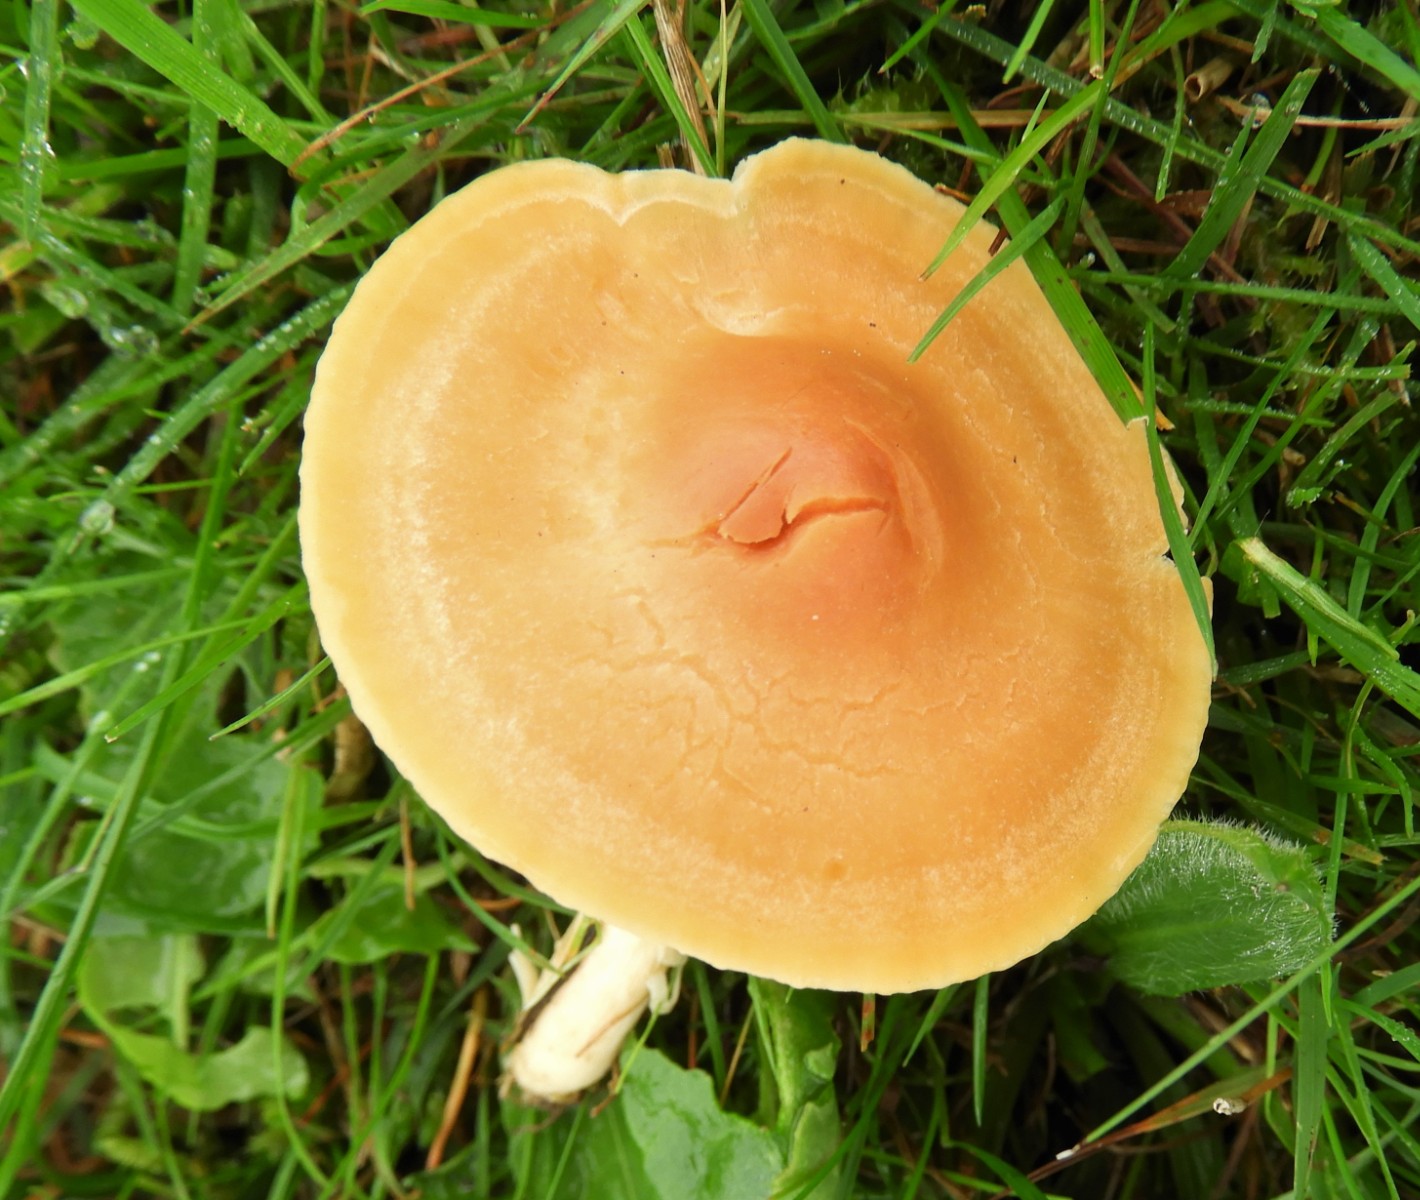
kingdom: Fungi
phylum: Basidiomycota
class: Agaricomycetes
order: Agaricales
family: Hygrophoraceae
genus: Cuphophyllus
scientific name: Cuphophyllus pratensis
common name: eng-vokshat
